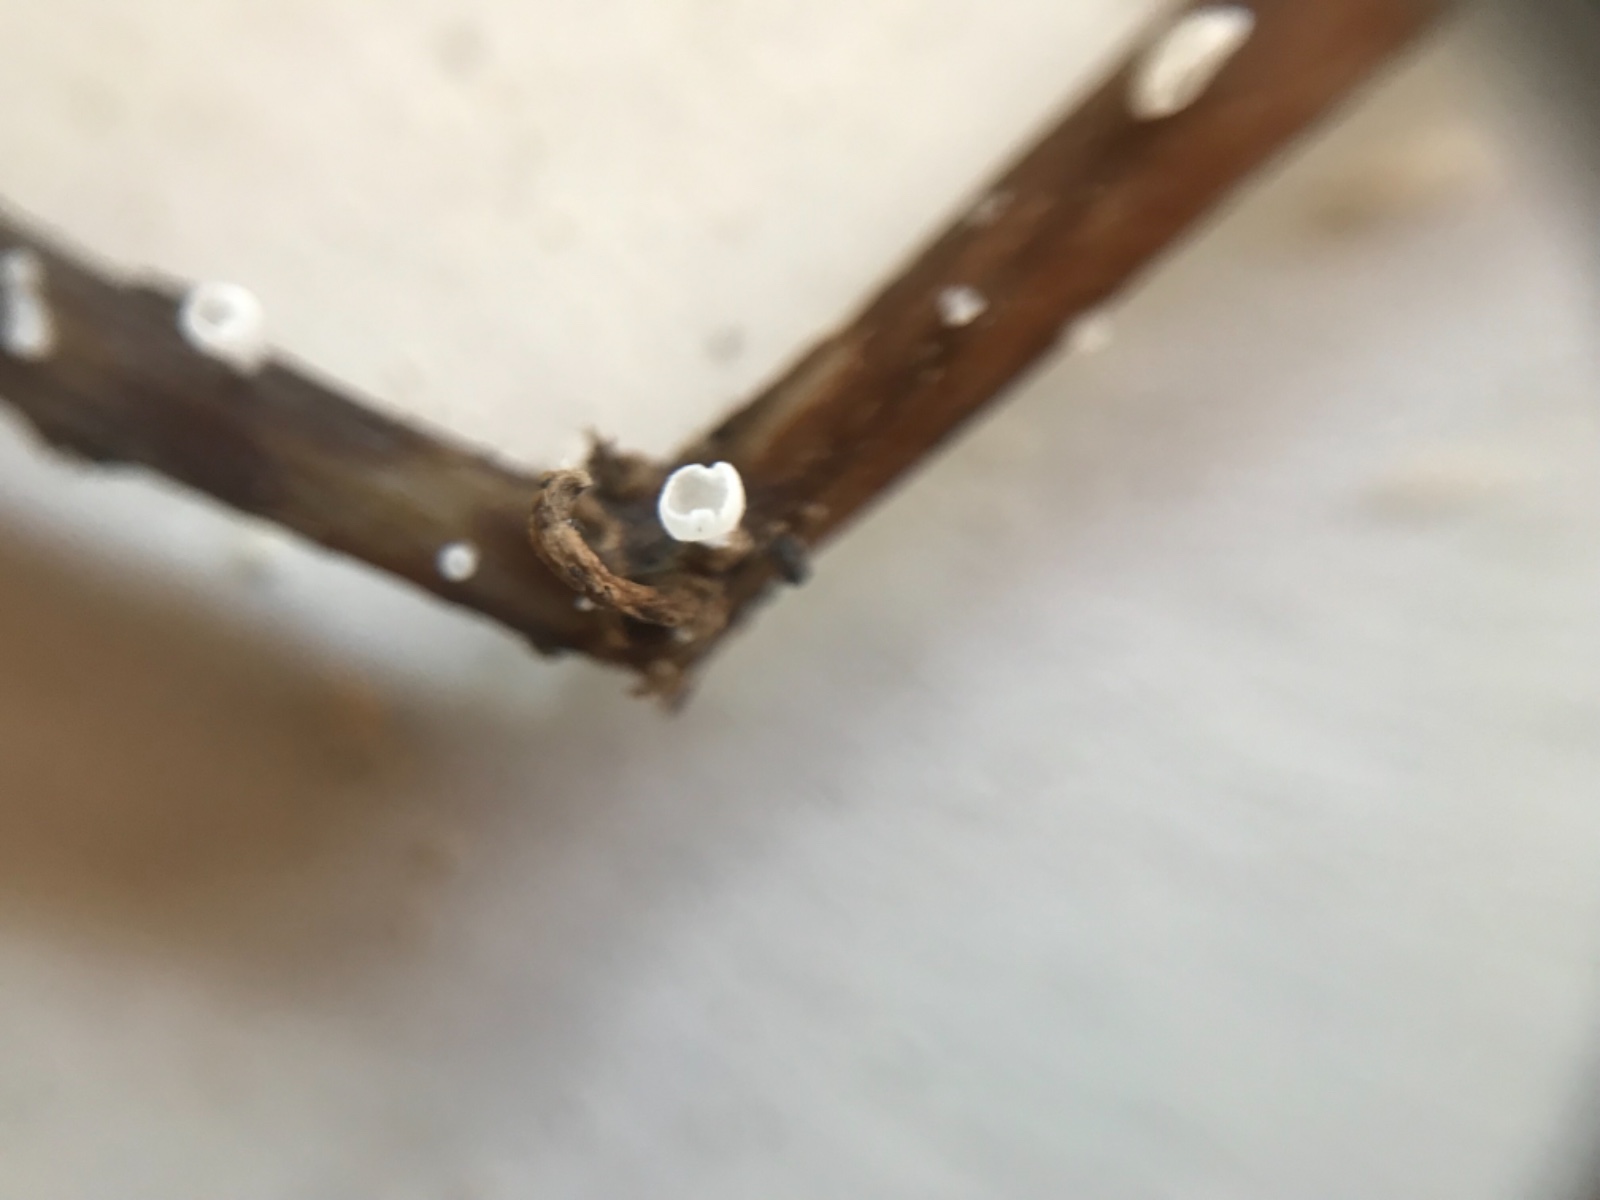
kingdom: Fungi
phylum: Basidiomycota
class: Agaricomycetes
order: Agaricales
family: Marasmiaceae
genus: Calyptella
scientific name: Calyptella
